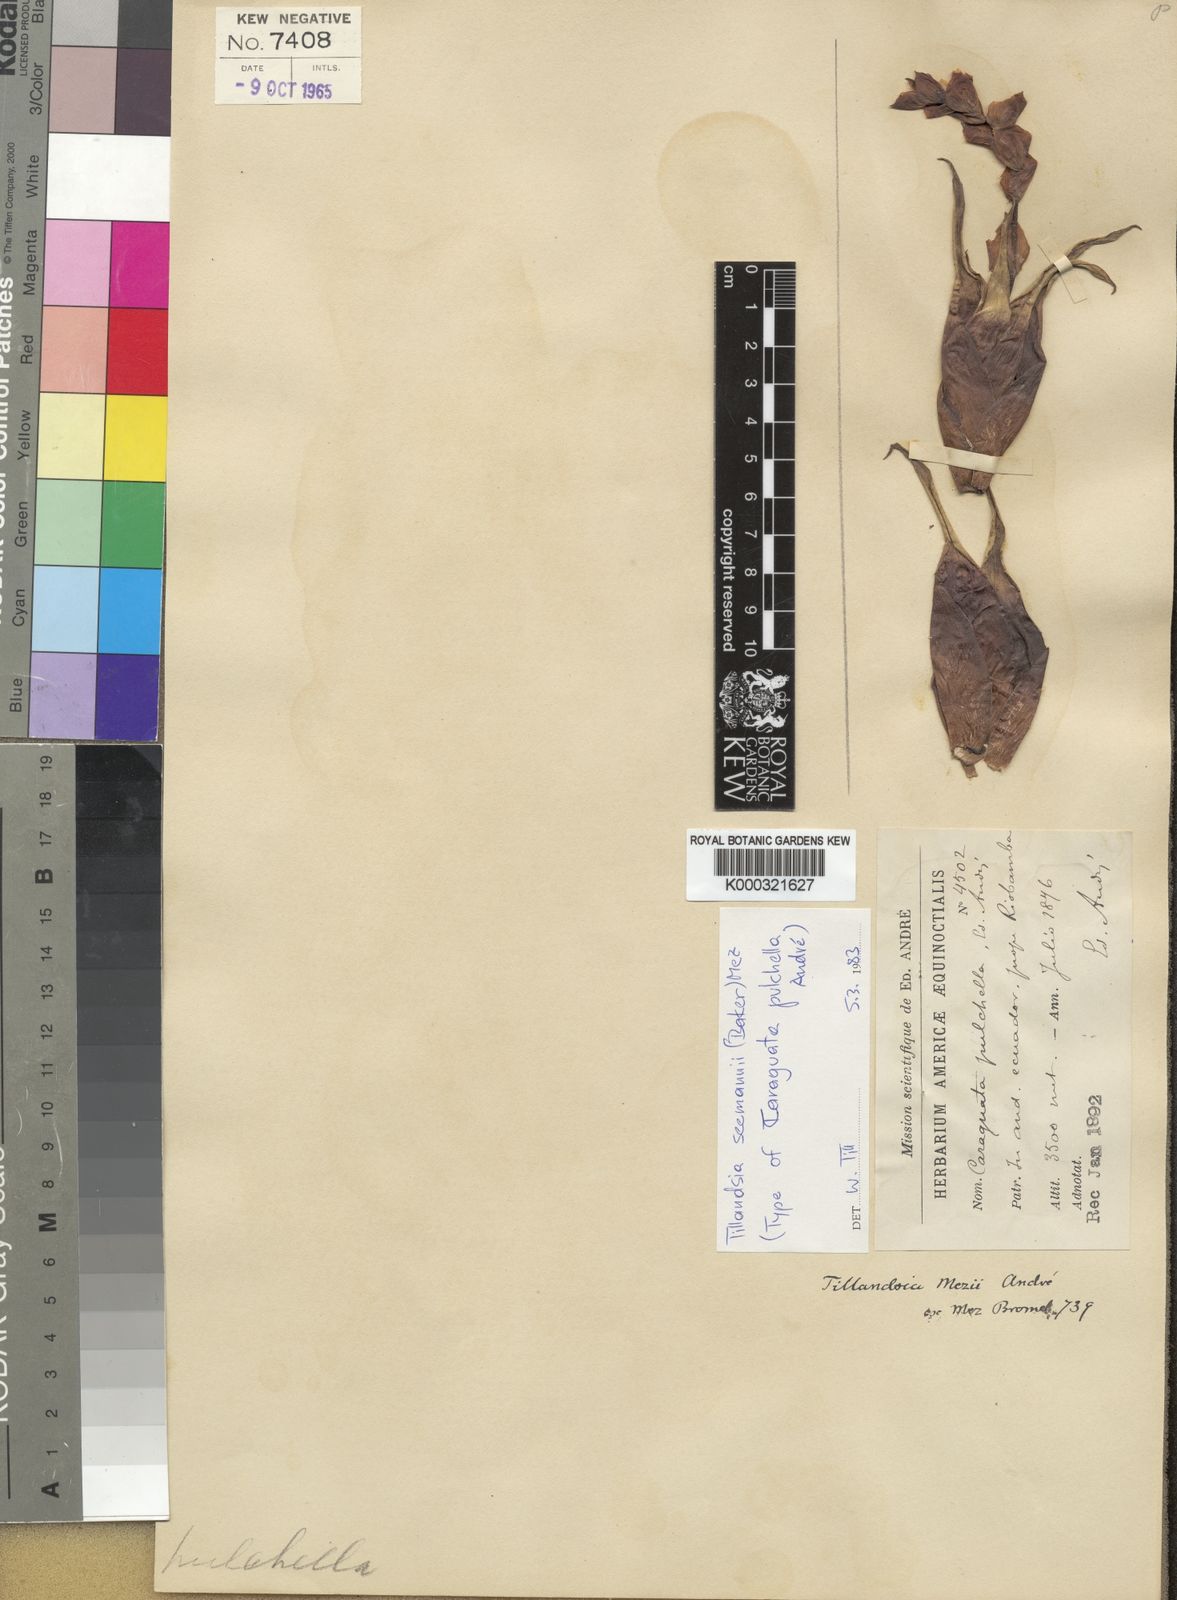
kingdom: Plantae
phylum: Tracheophyta
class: Liliopsida
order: Poales
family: Bromeliaceae
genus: Racinaea
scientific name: Racinaea seemannii
